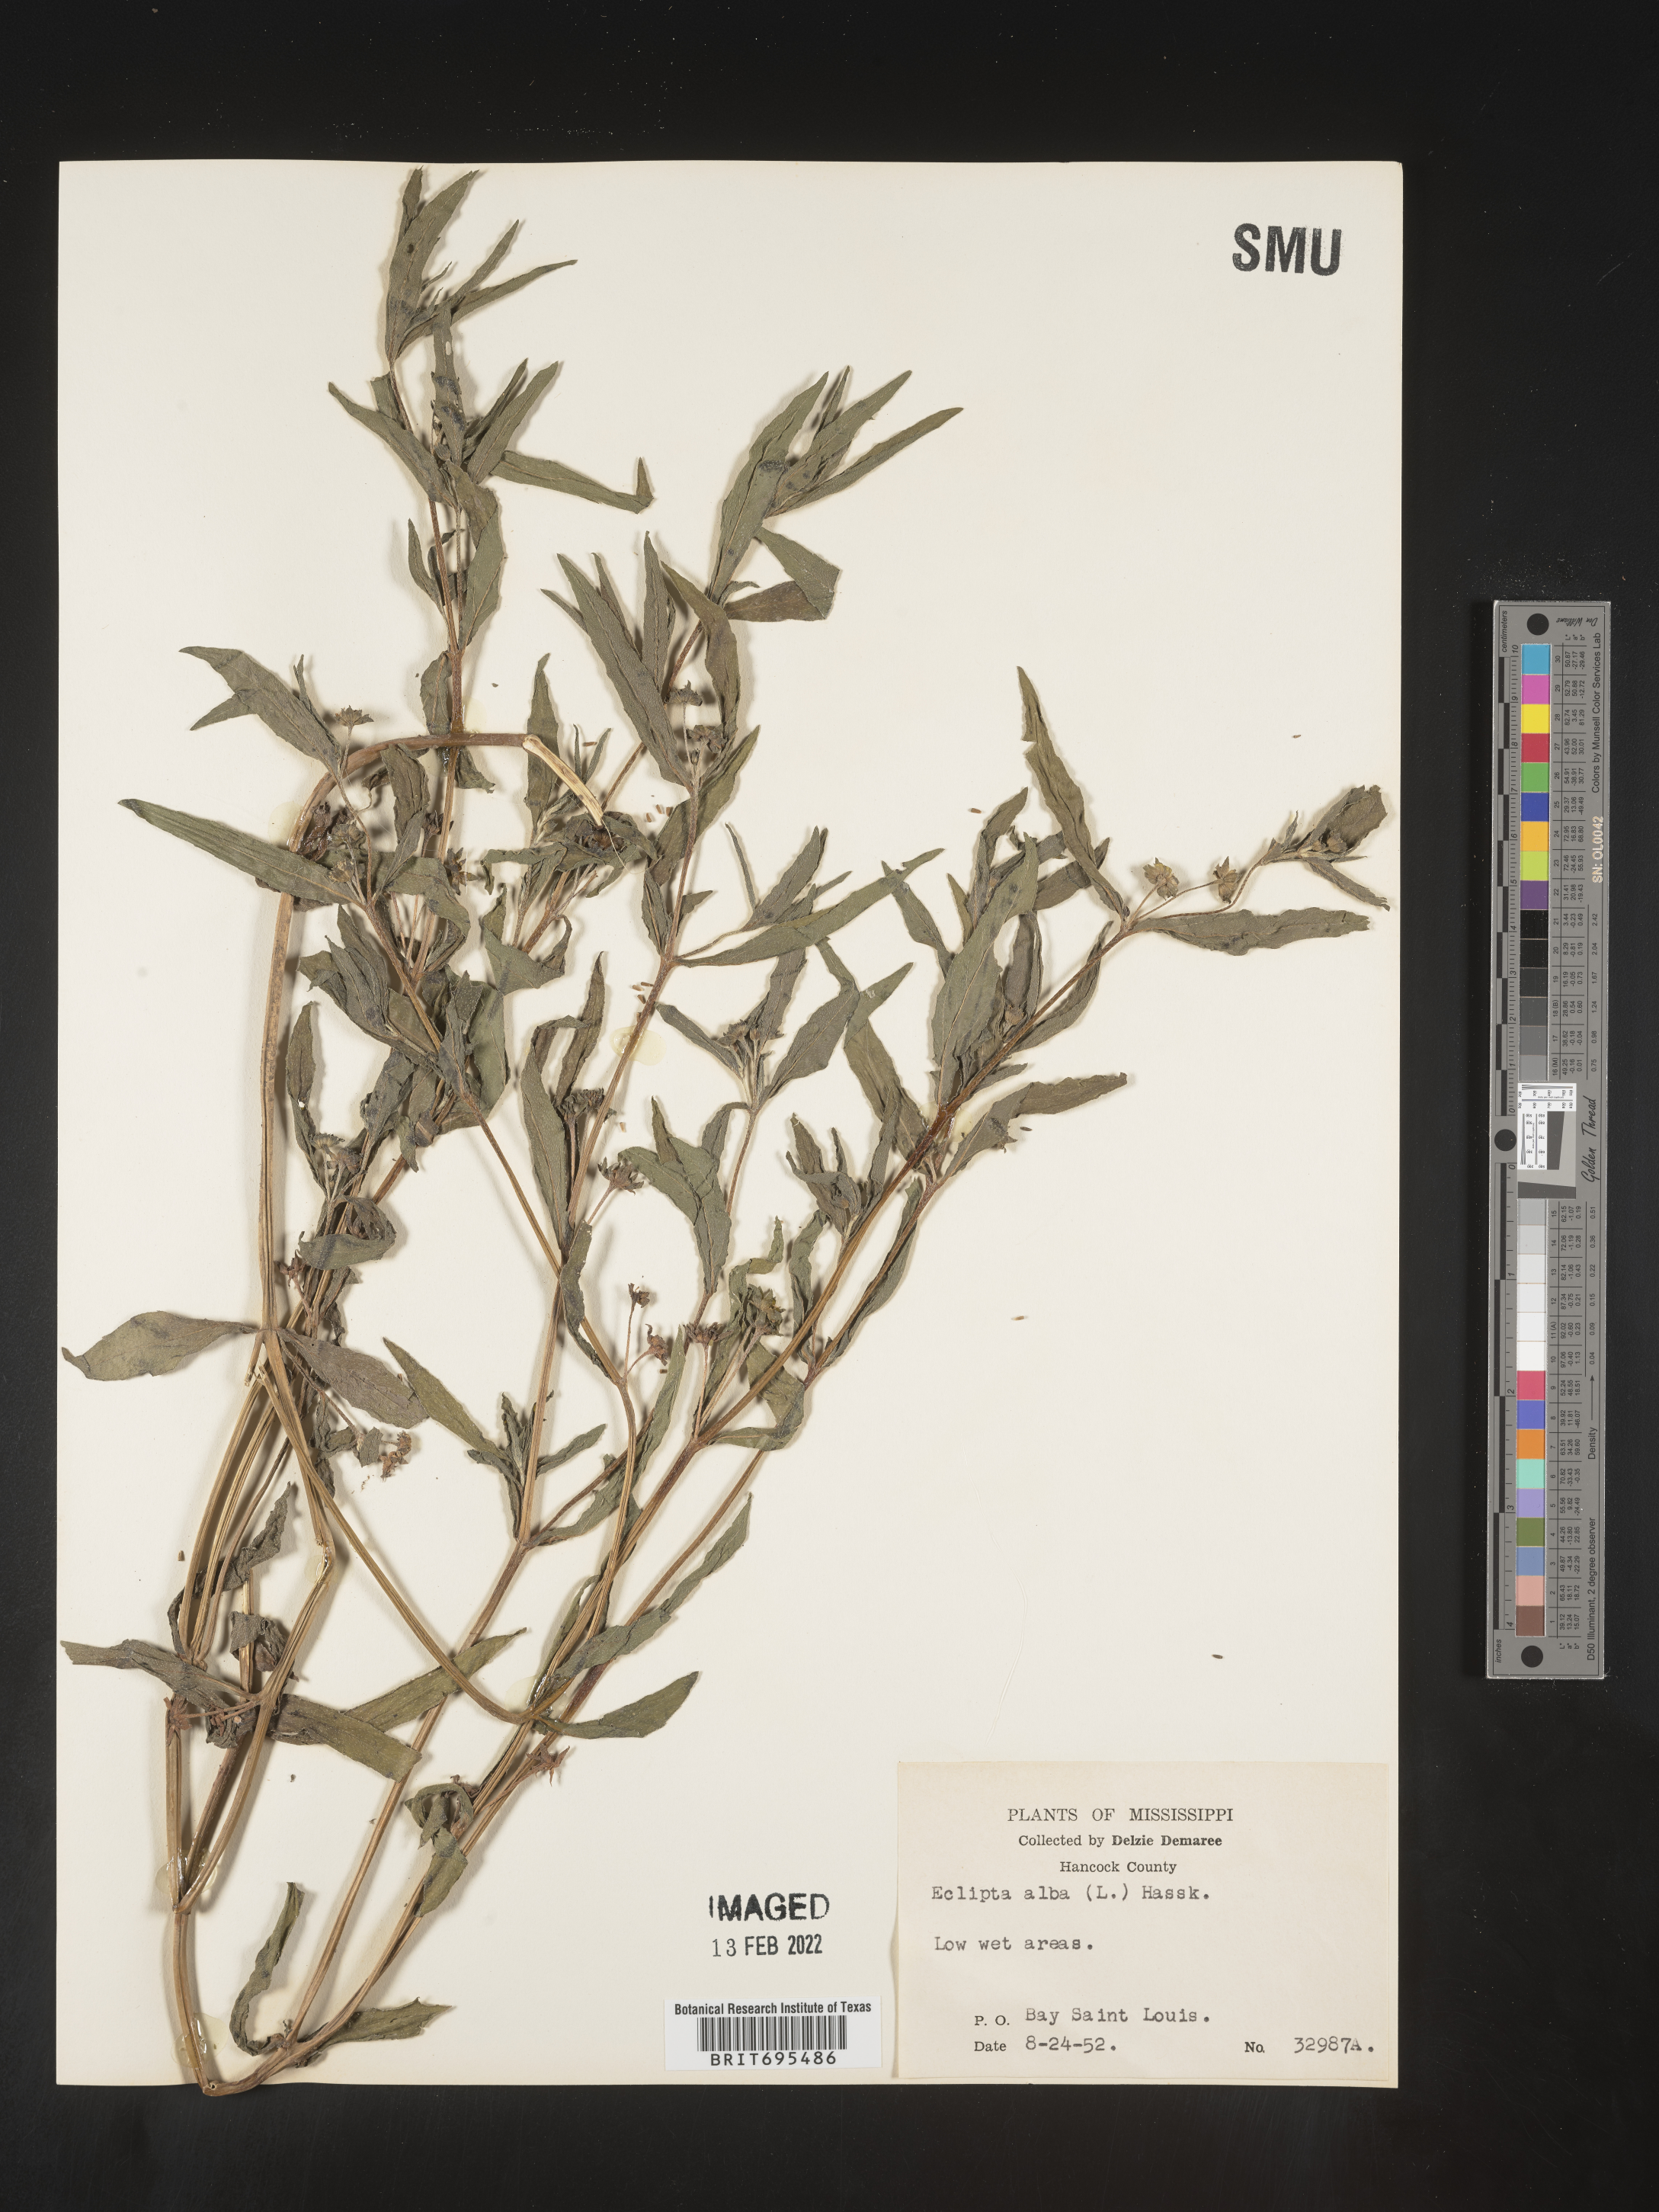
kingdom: Plantae
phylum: Tracheophyta
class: Magnoliopsida
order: Asterales
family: Asteraceae
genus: Eclipta
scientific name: Eclipta alba
